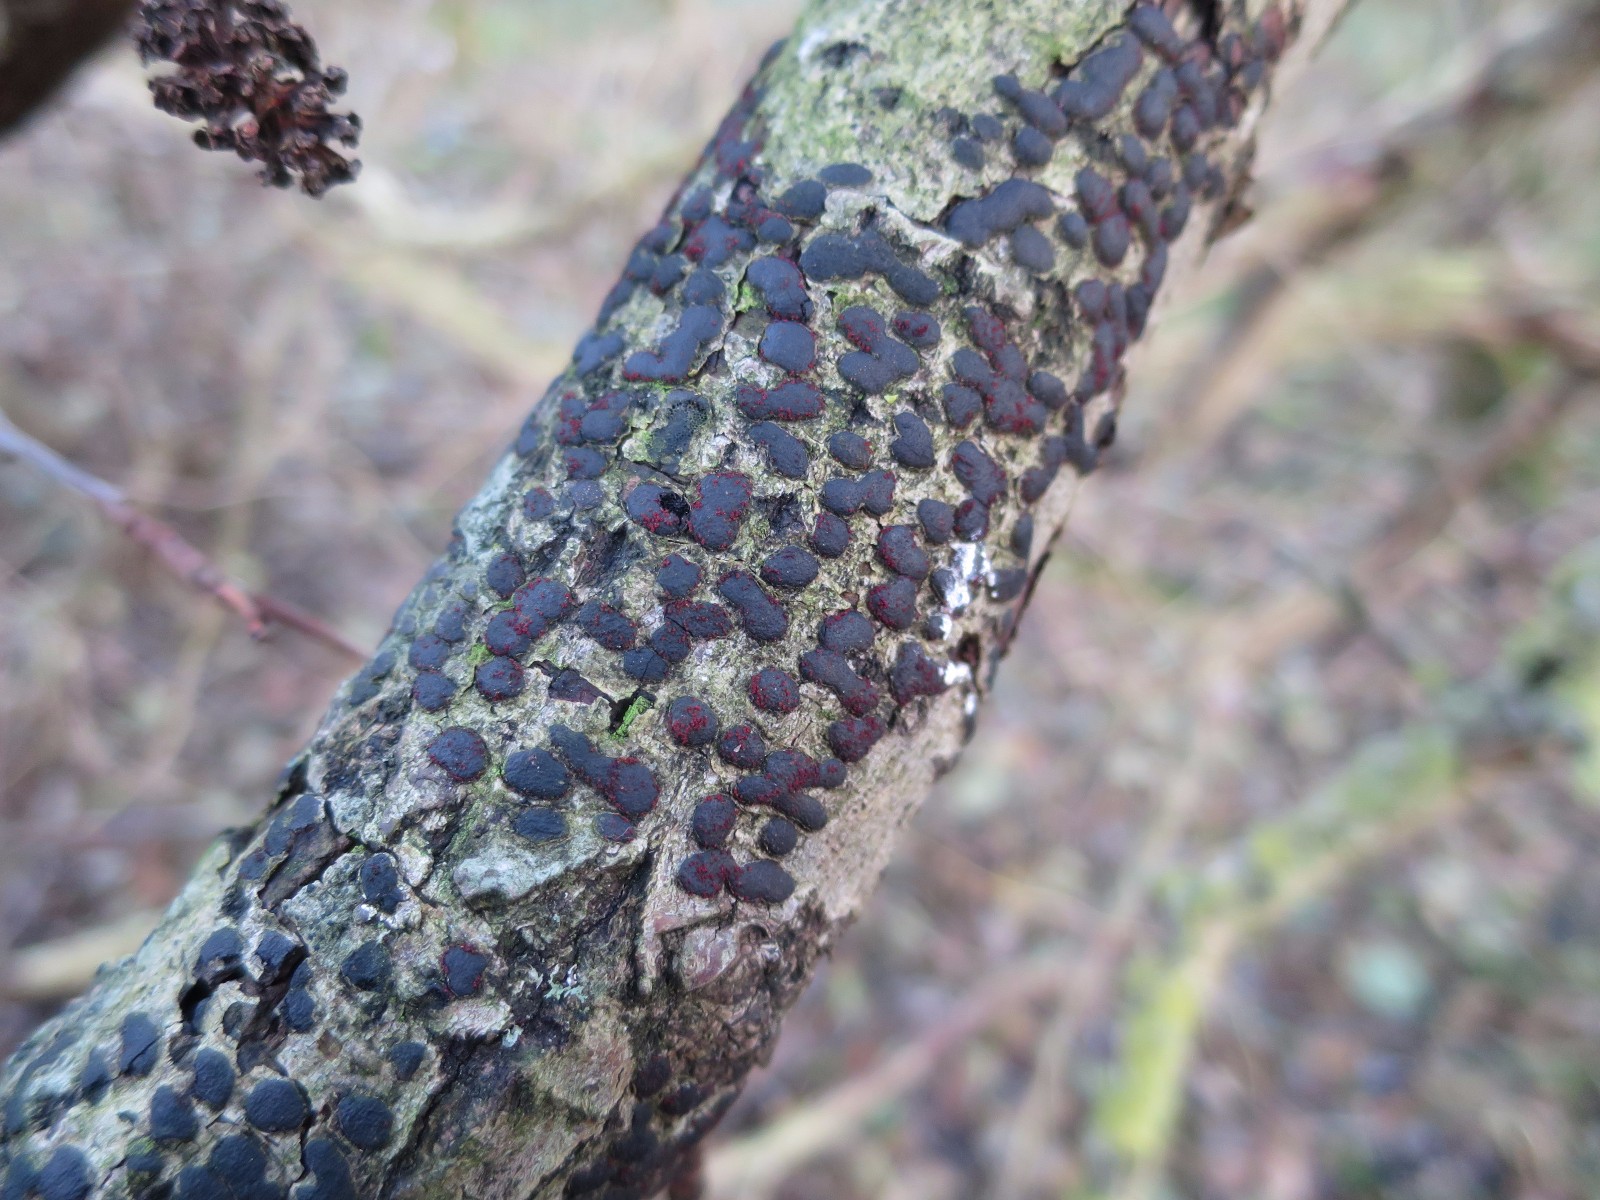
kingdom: Fungi
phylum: Ascomycota
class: Sordariomycetes
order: Xylariales
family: Diatrypaceae
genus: Diatrype
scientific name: Diatrype bullata
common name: pile-kulskorpe
